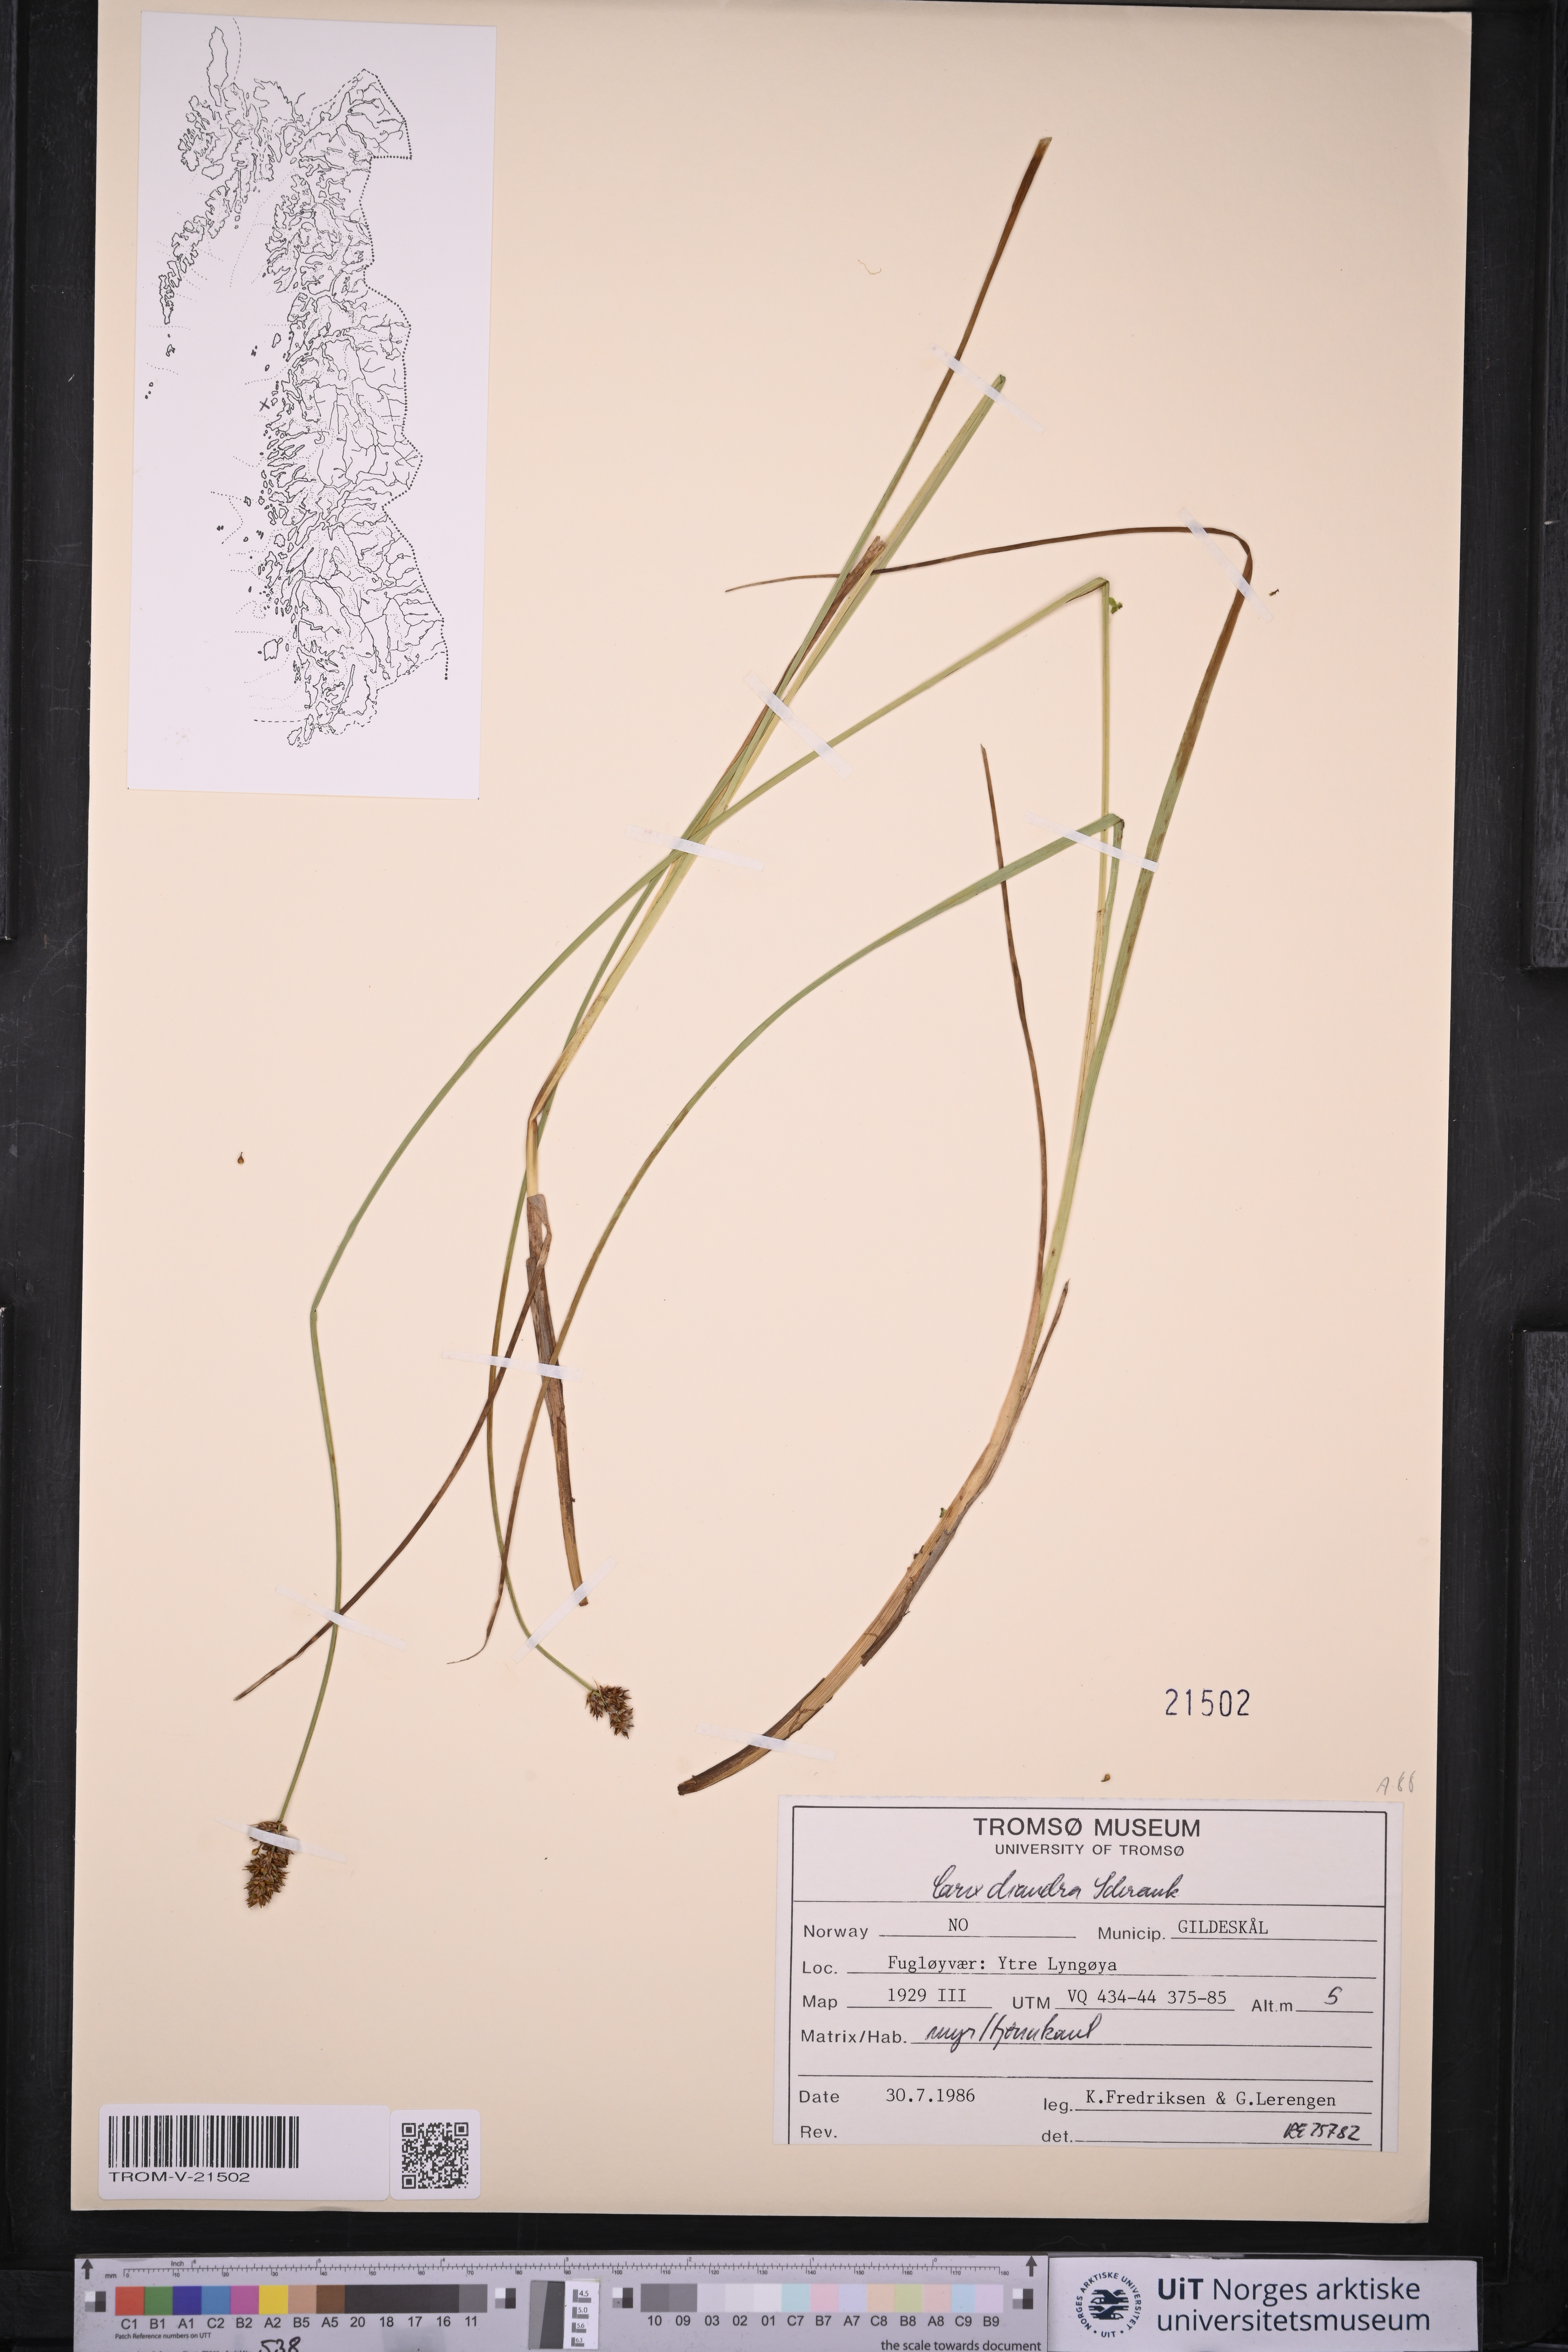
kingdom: Plantae
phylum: Tracheophyta
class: Liliopsida
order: Poales
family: Cyperaceae
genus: Carex
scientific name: Carex diandra
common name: Lesser tussock-sedge
